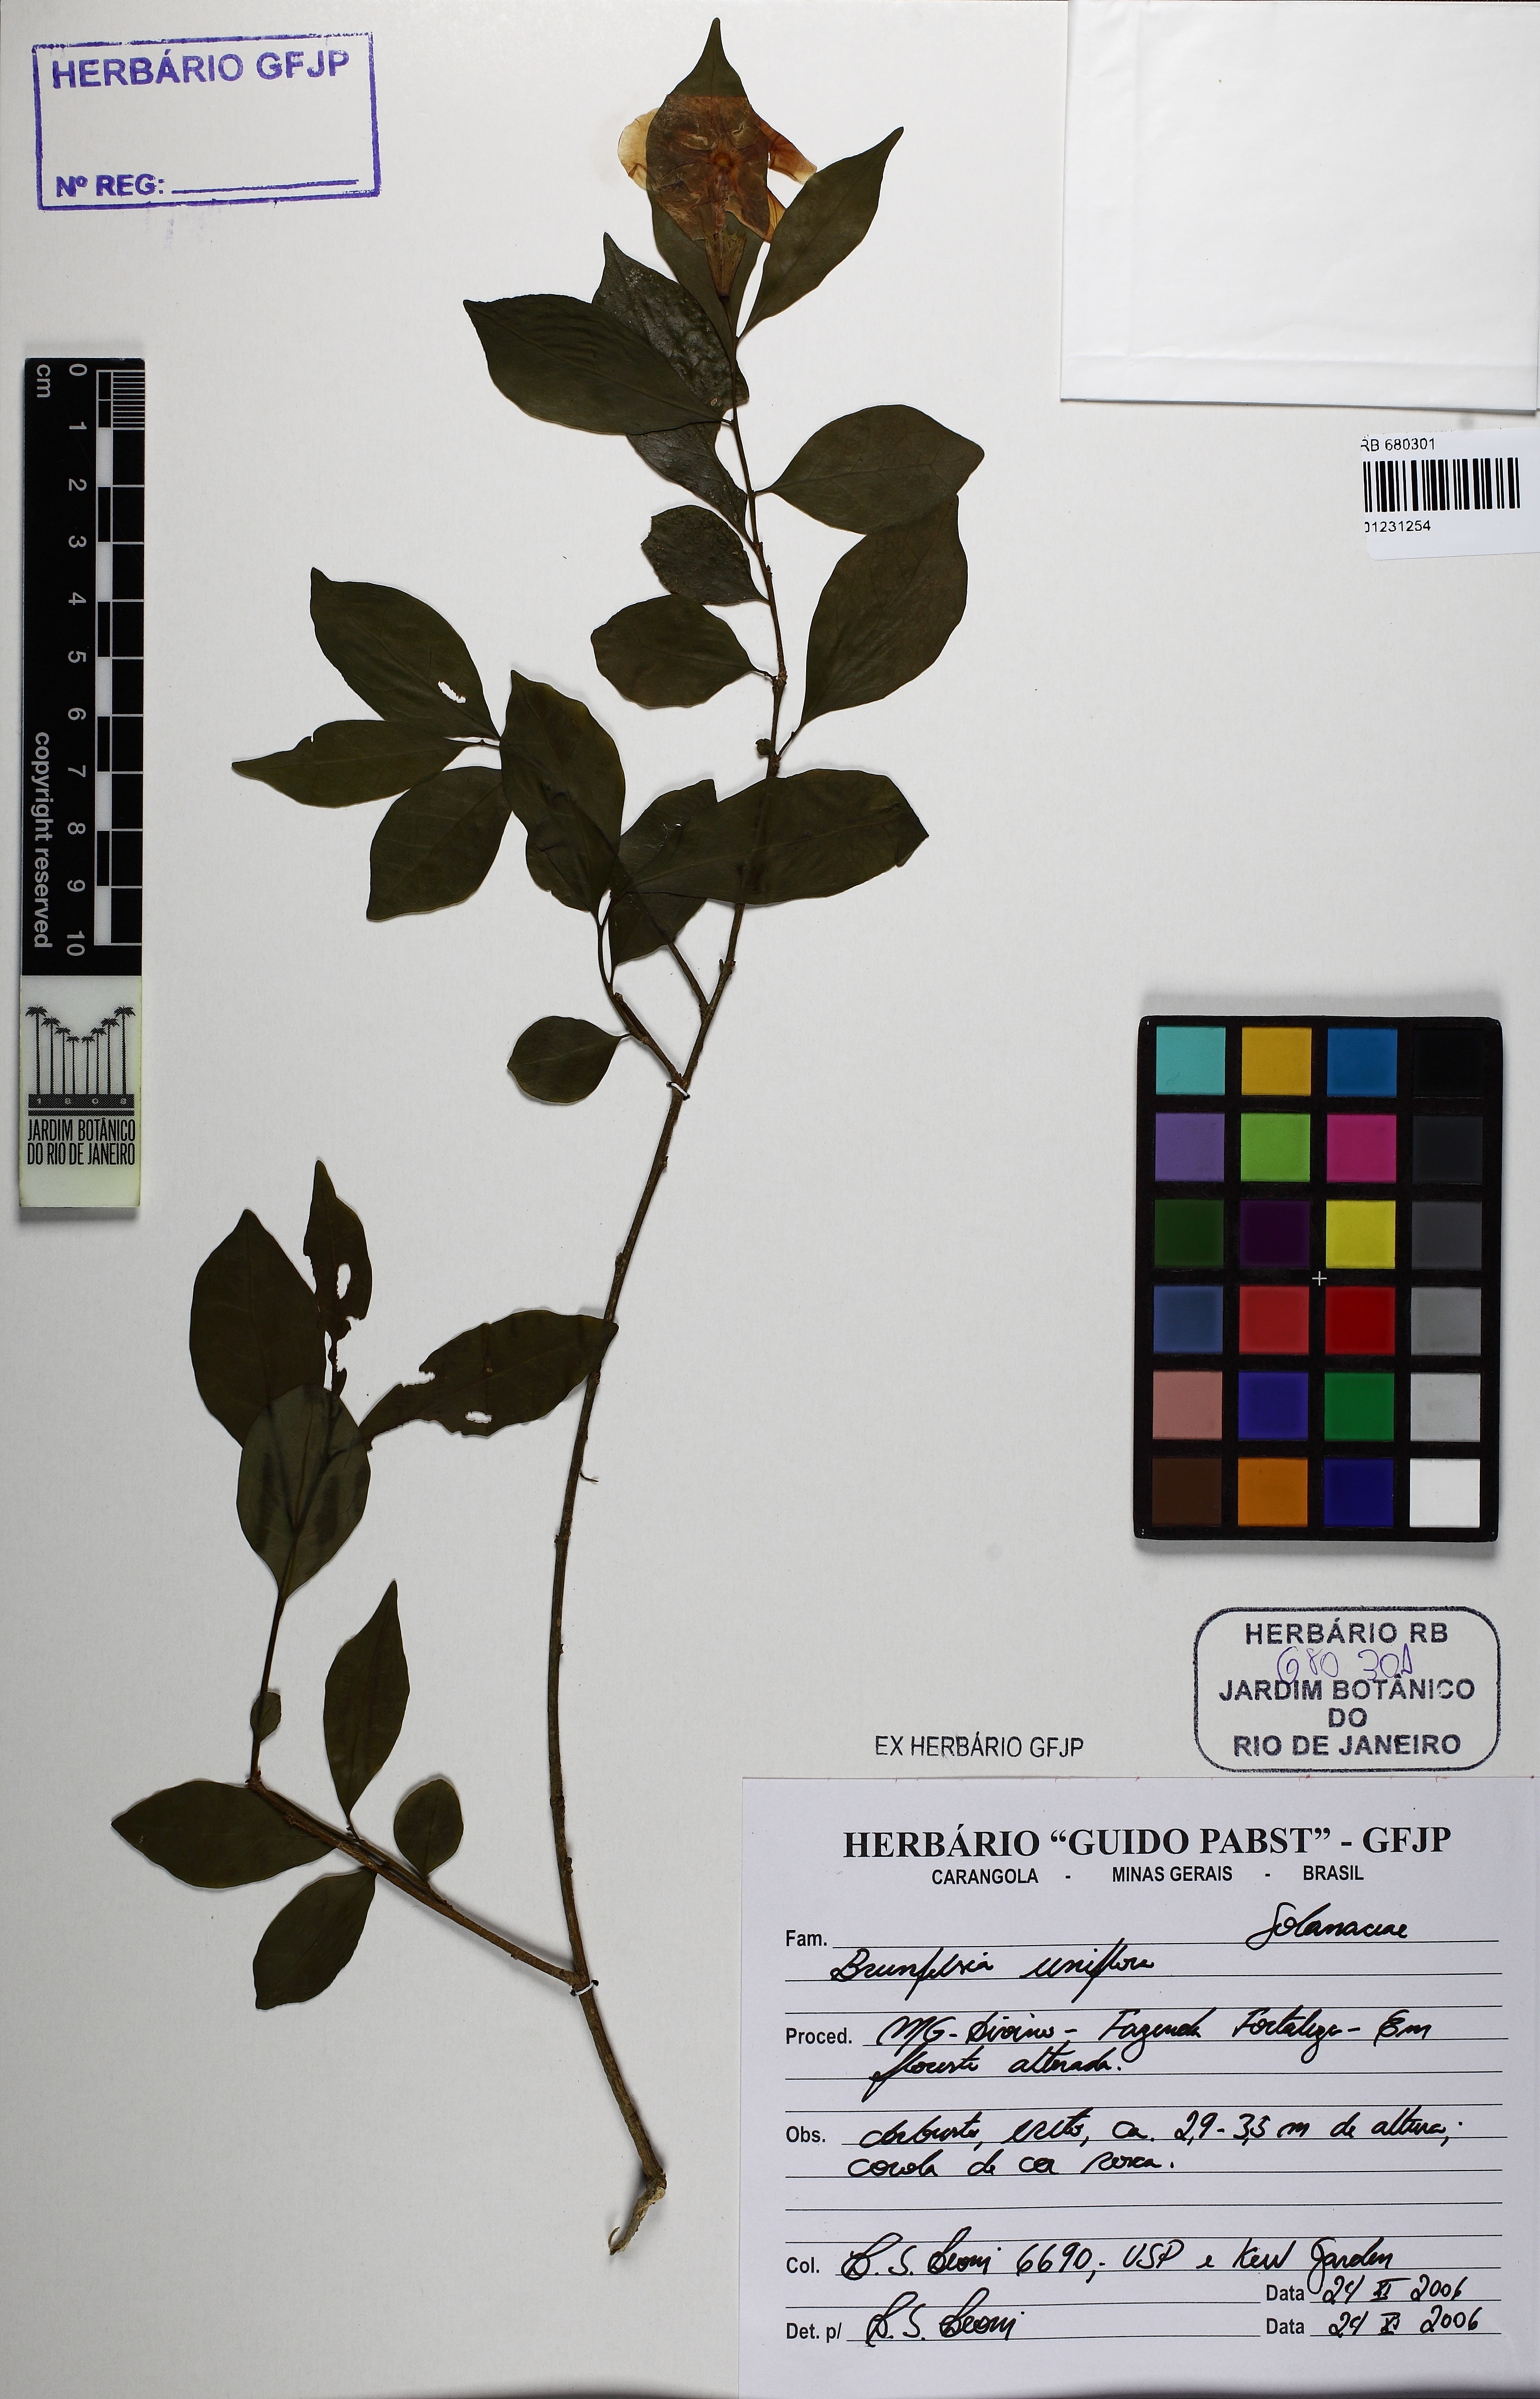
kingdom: Plantae
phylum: Tracheophyta
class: Magnoliopsida
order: Solanales
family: Solanaceae
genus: Brunfelsia
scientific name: Brunfelsia uniflora
